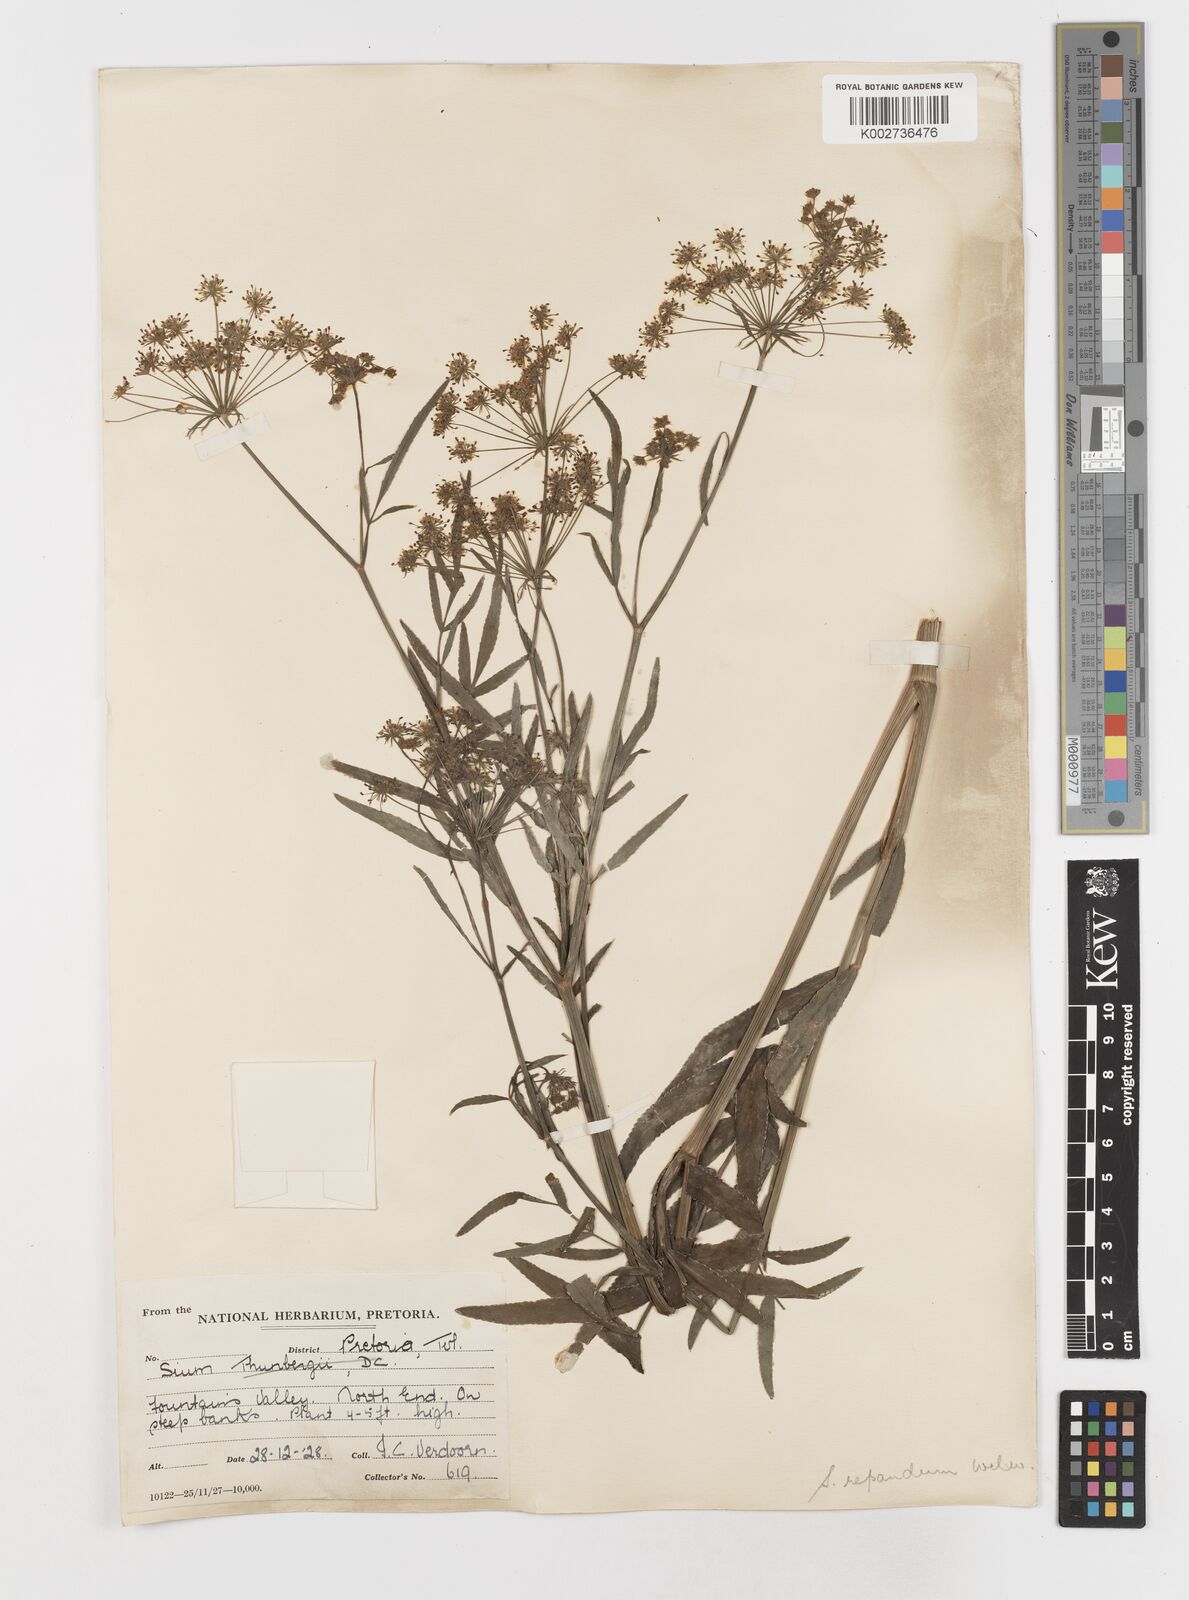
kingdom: Plantae
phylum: Tracheophyta
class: Magnoliopsida
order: Apiales
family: Apiaceae
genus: Berula
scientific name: Berula repanda
